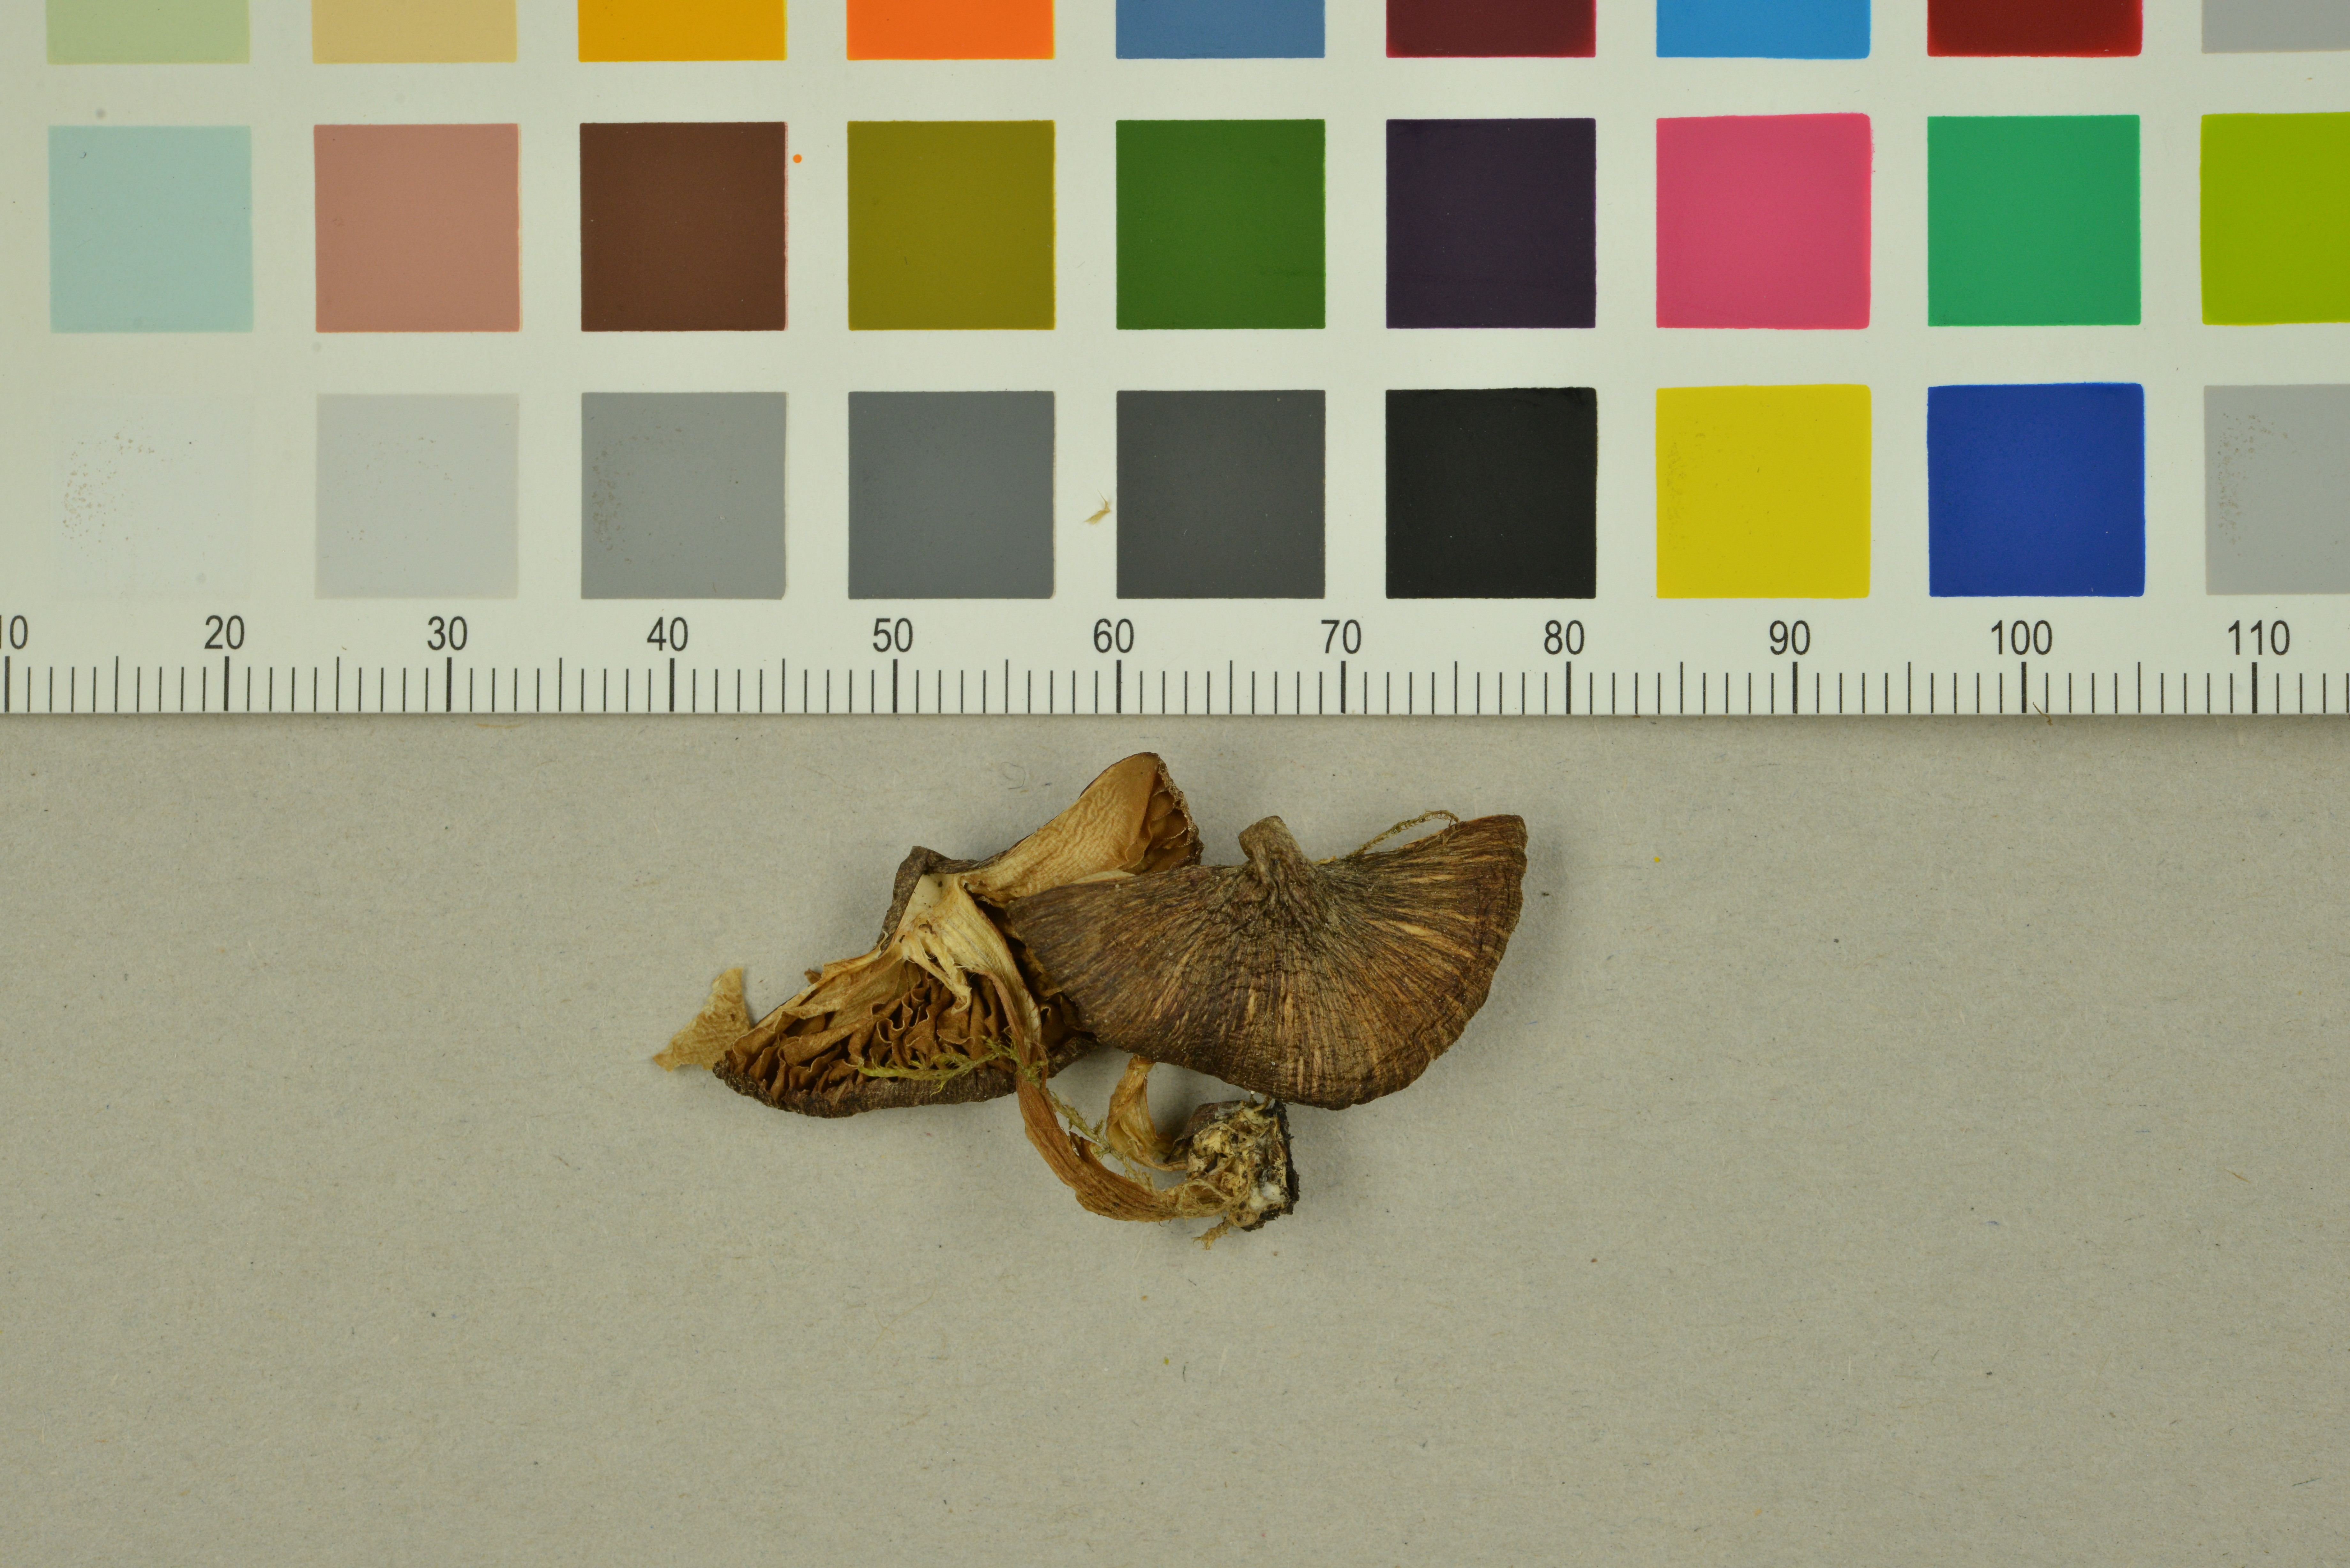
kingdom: Fungi
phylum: Basidiomycota
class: Agaricomycetes
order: Agaricales
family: Inocybaceae
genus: Inocybe
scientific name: Inocybe arctica
